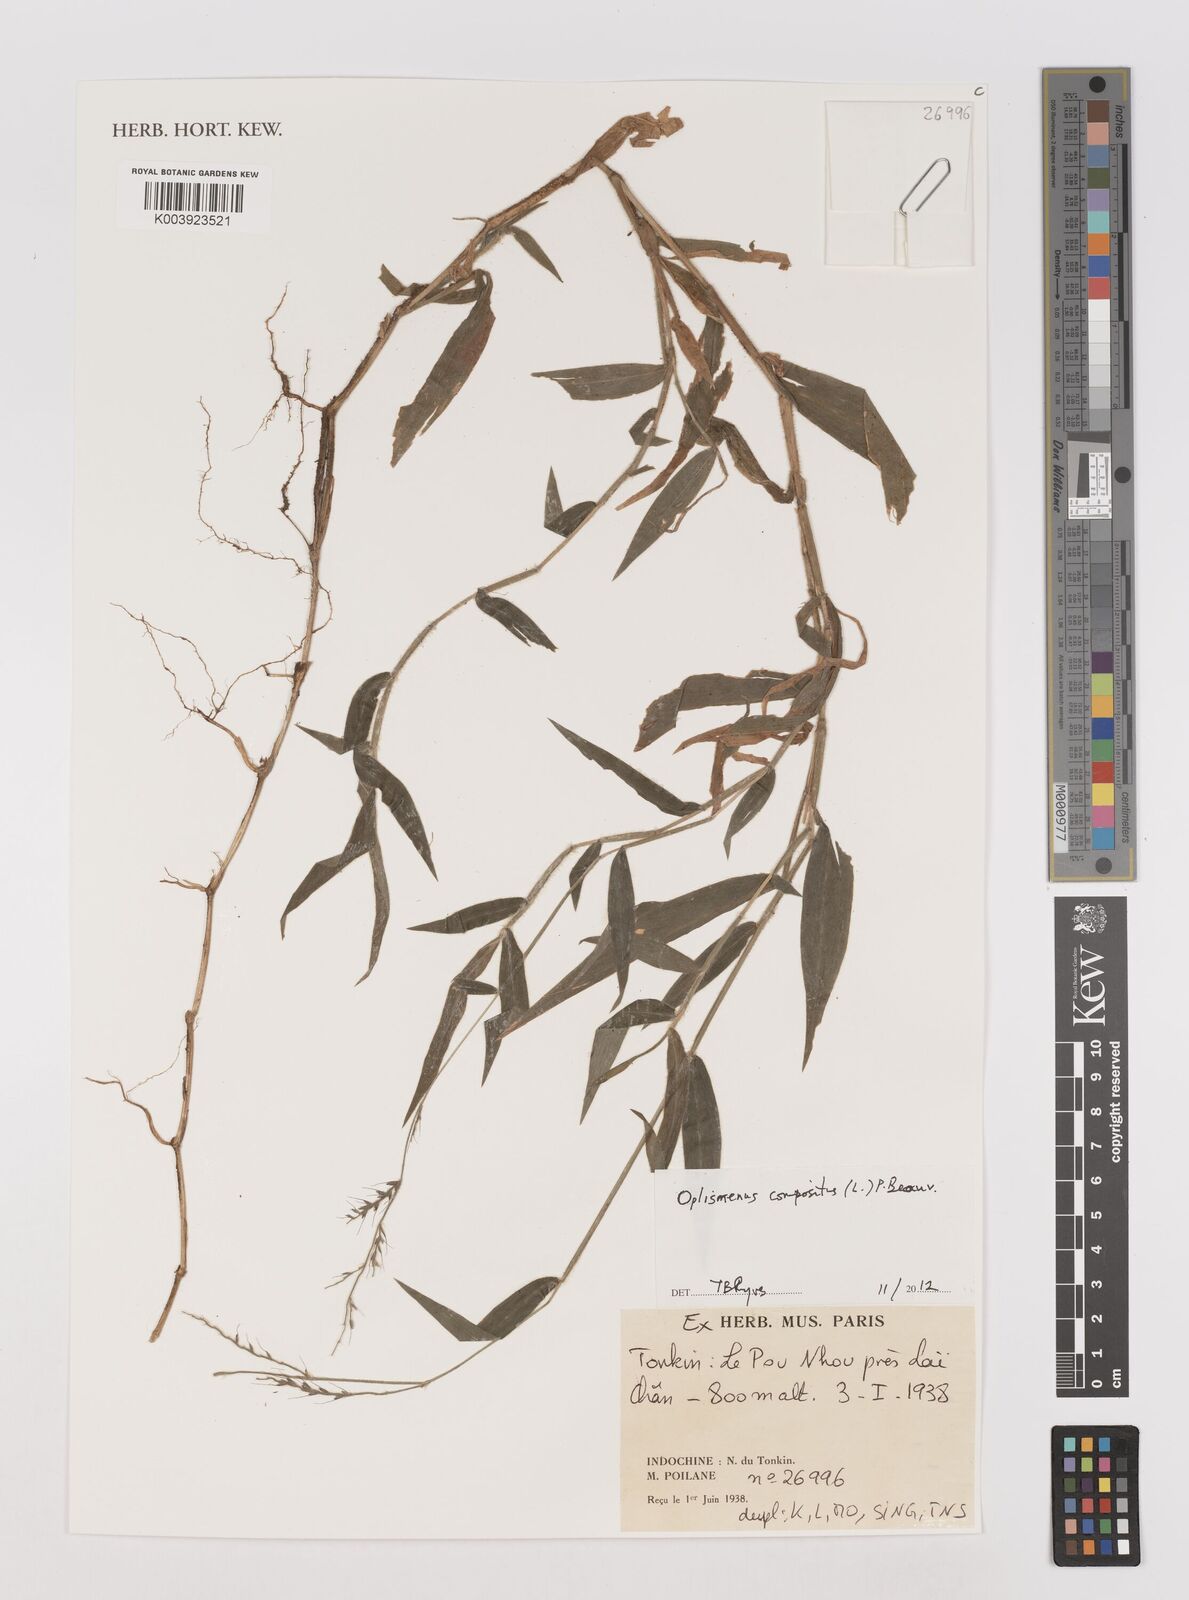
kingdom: Plantae
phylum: Tracheophyta
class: Liliopsida
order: Poales
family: Poaceae
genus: Oplismenus
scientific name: Oplismenus compositus
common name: Running mountain grass
